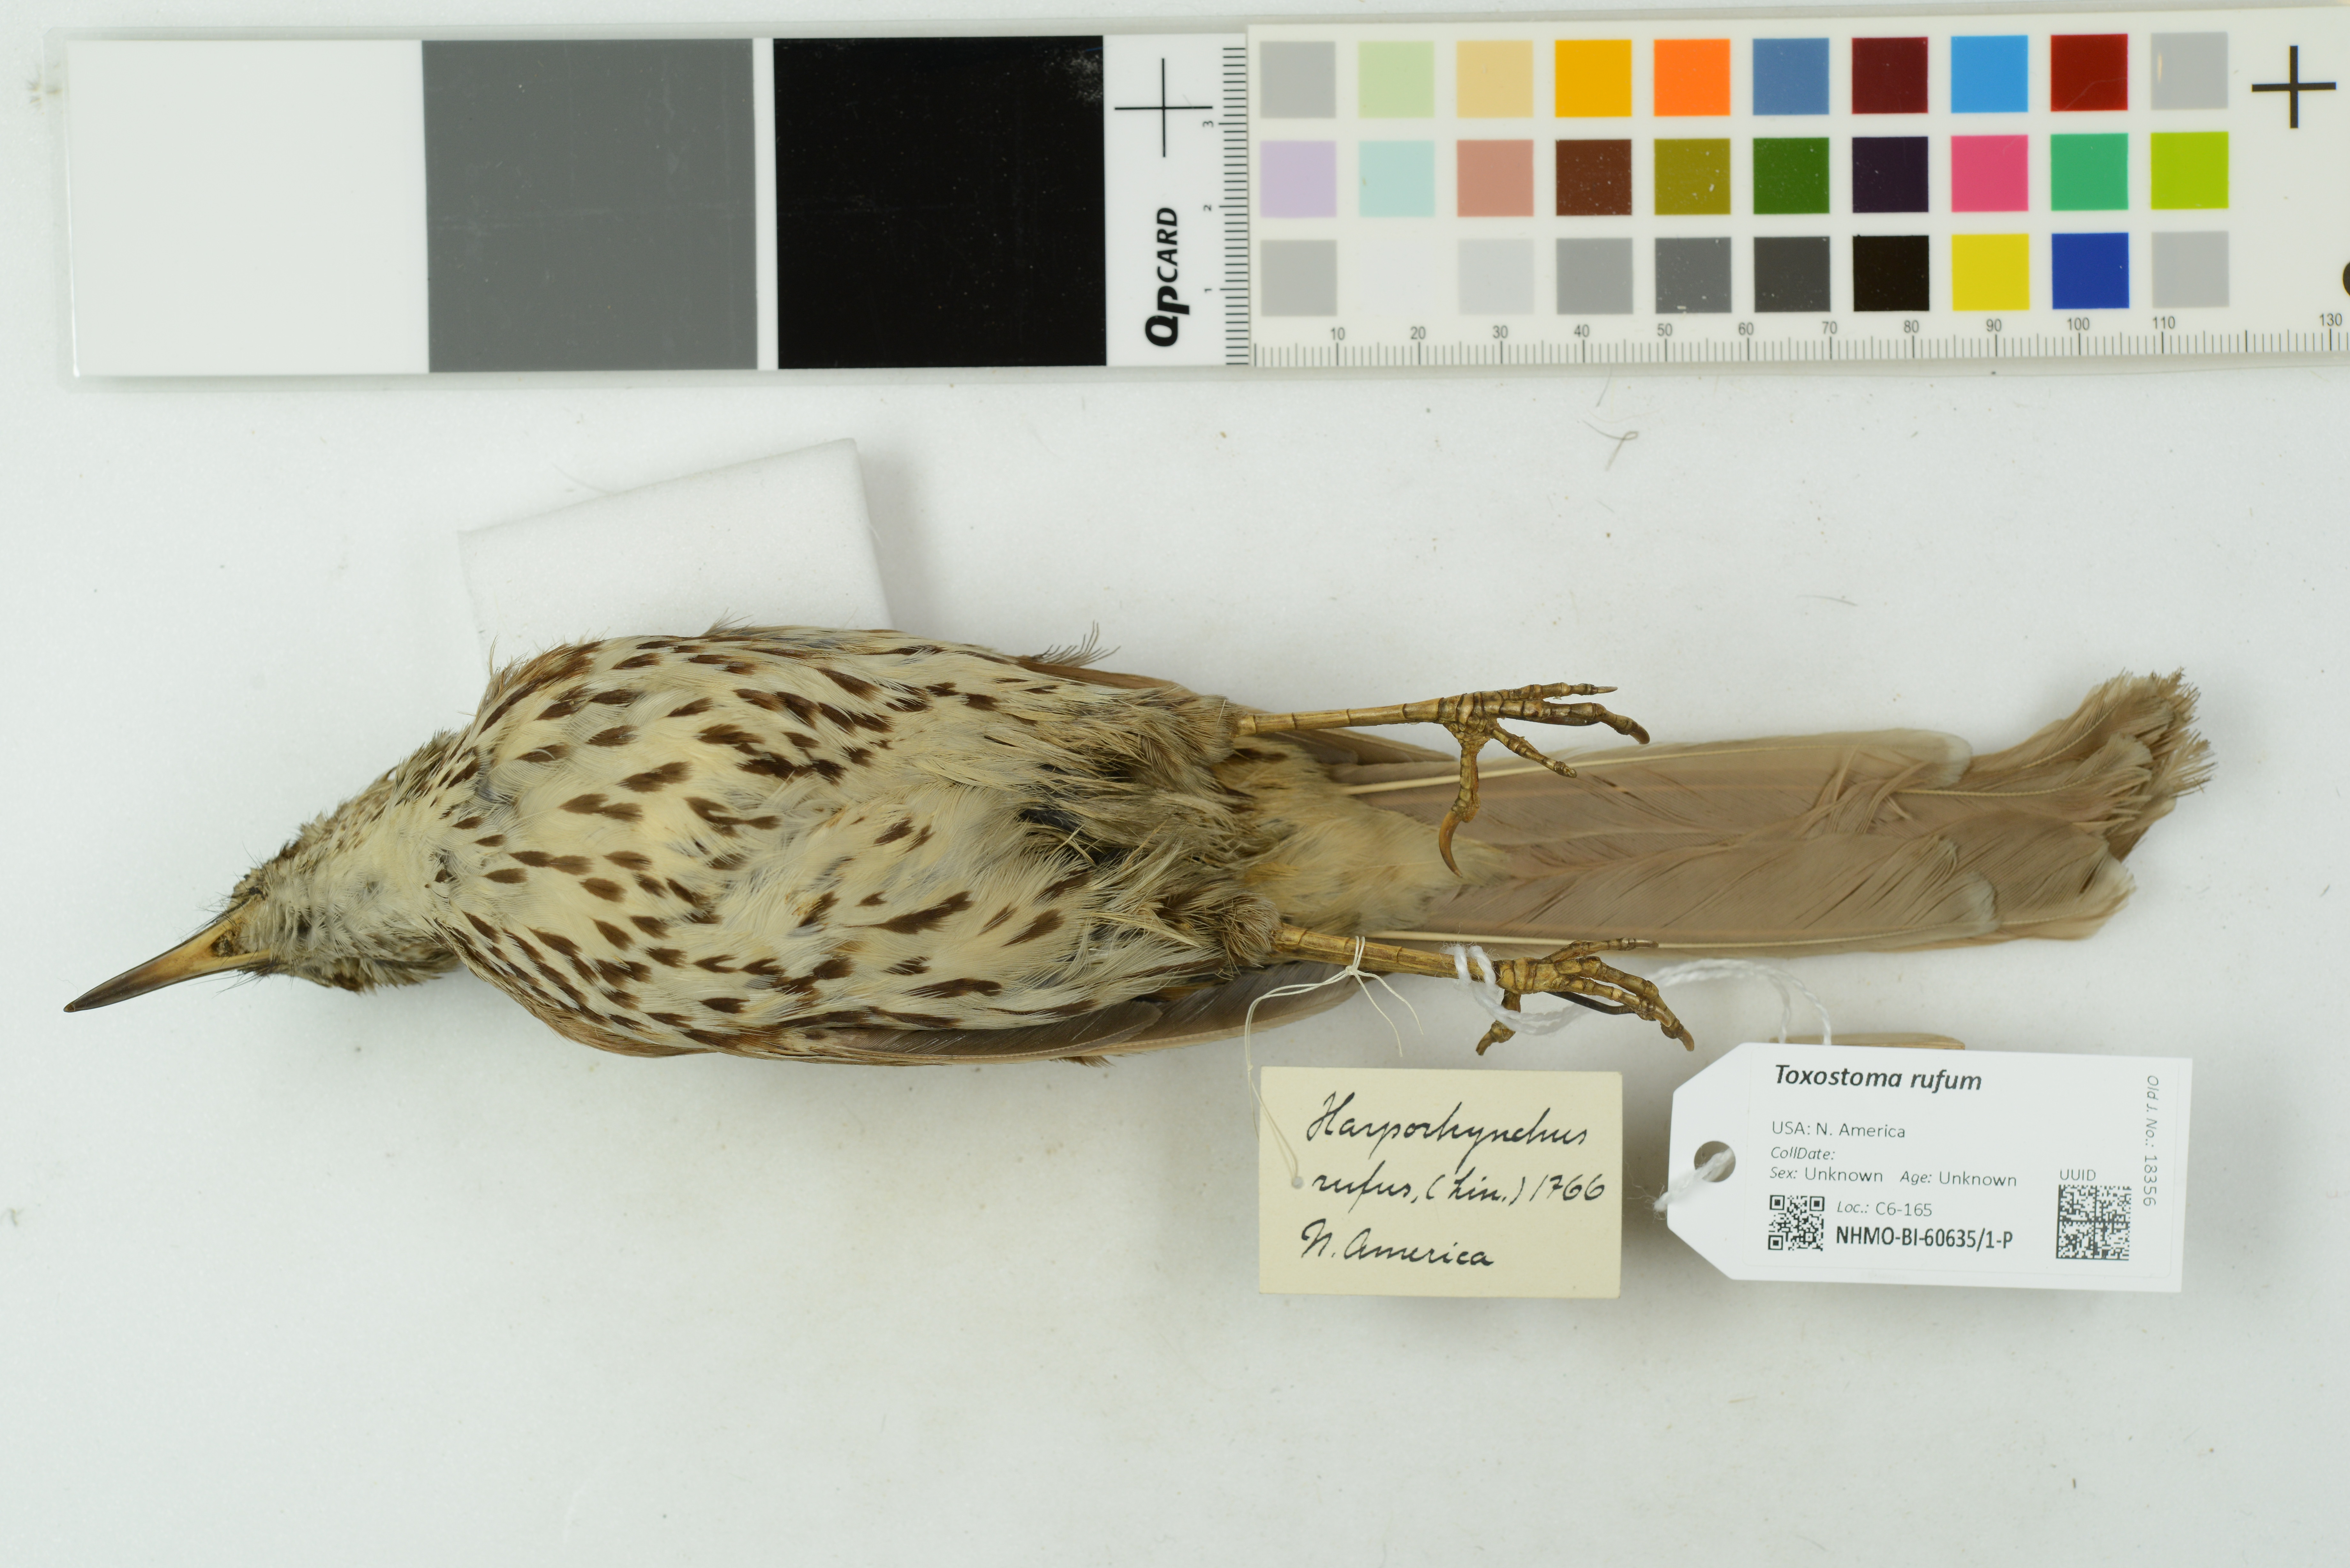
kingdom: Animalia
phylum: Chordata
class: Aves
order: Passeriformes
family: Mimidae
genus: Toxostoma
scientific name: Toxostoma rufum
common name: Brown thrasher
